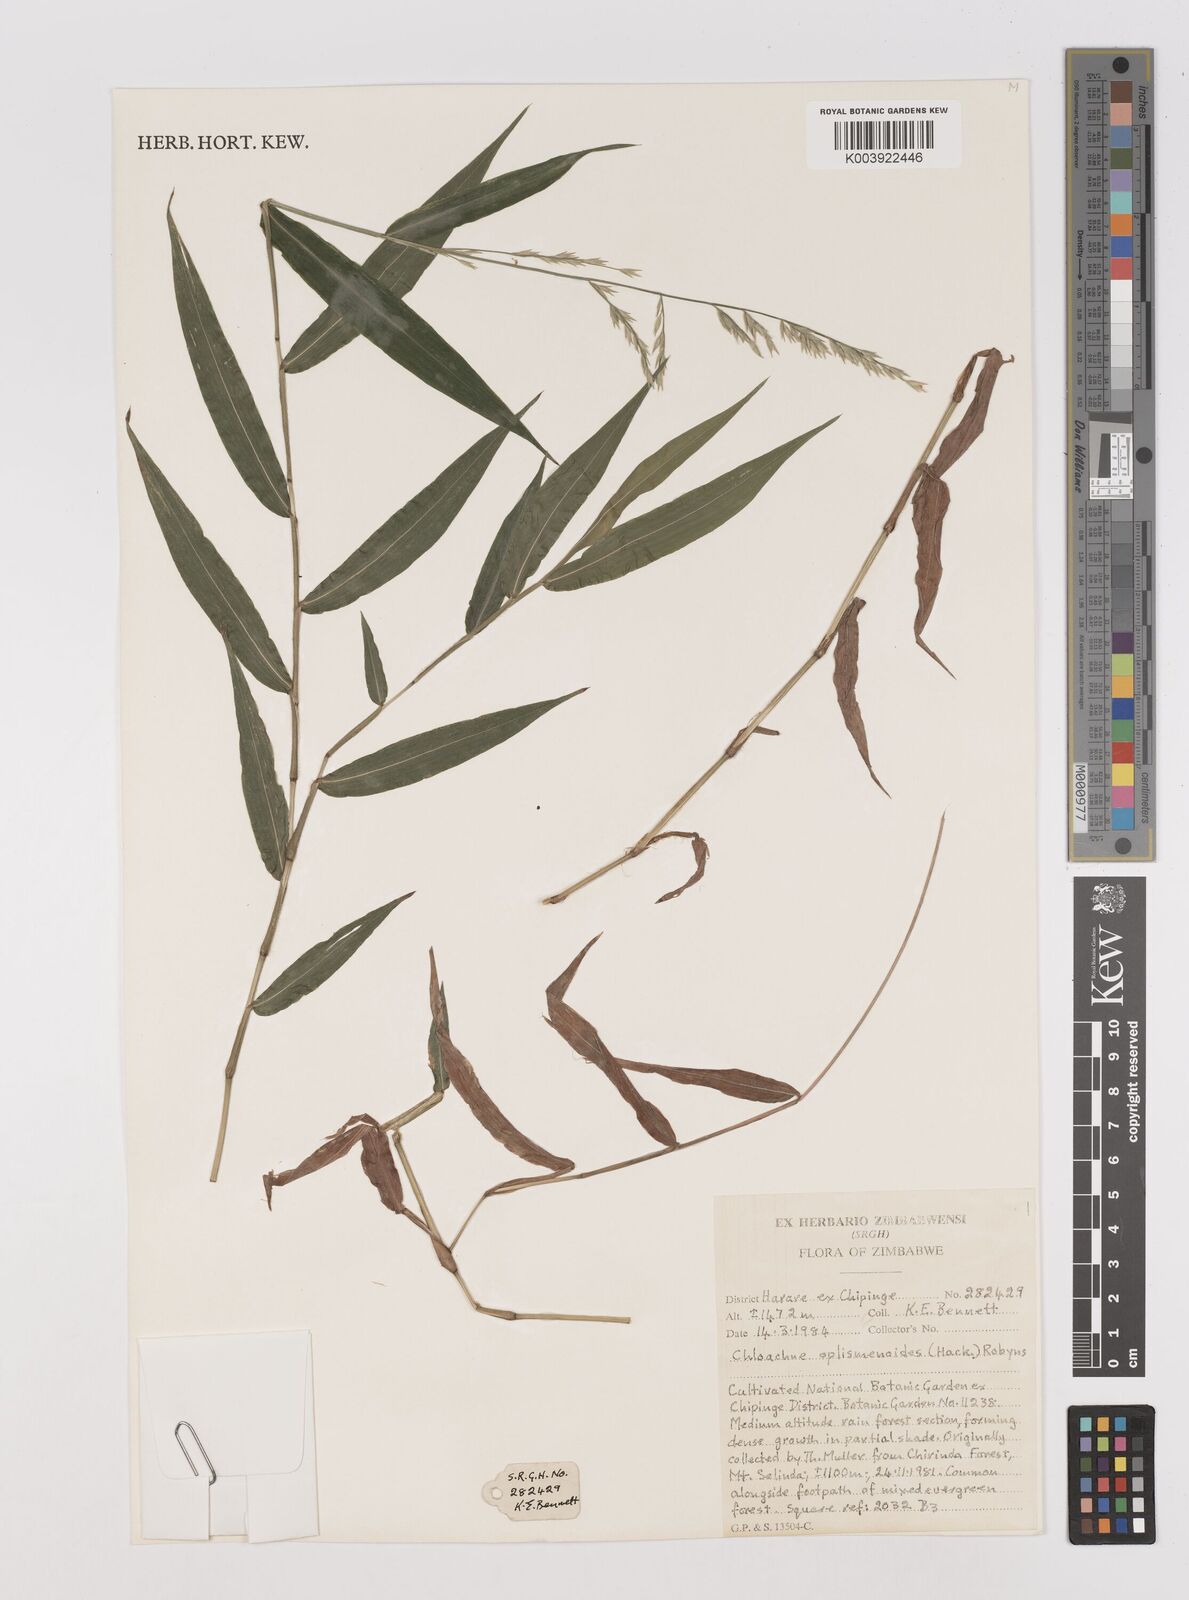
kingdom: Plantae
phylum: Tracheophyta
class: Liliopsida
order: Poales
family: Poaceae
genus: Poecilostachys
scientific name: Poecilostachys oplismenoides
